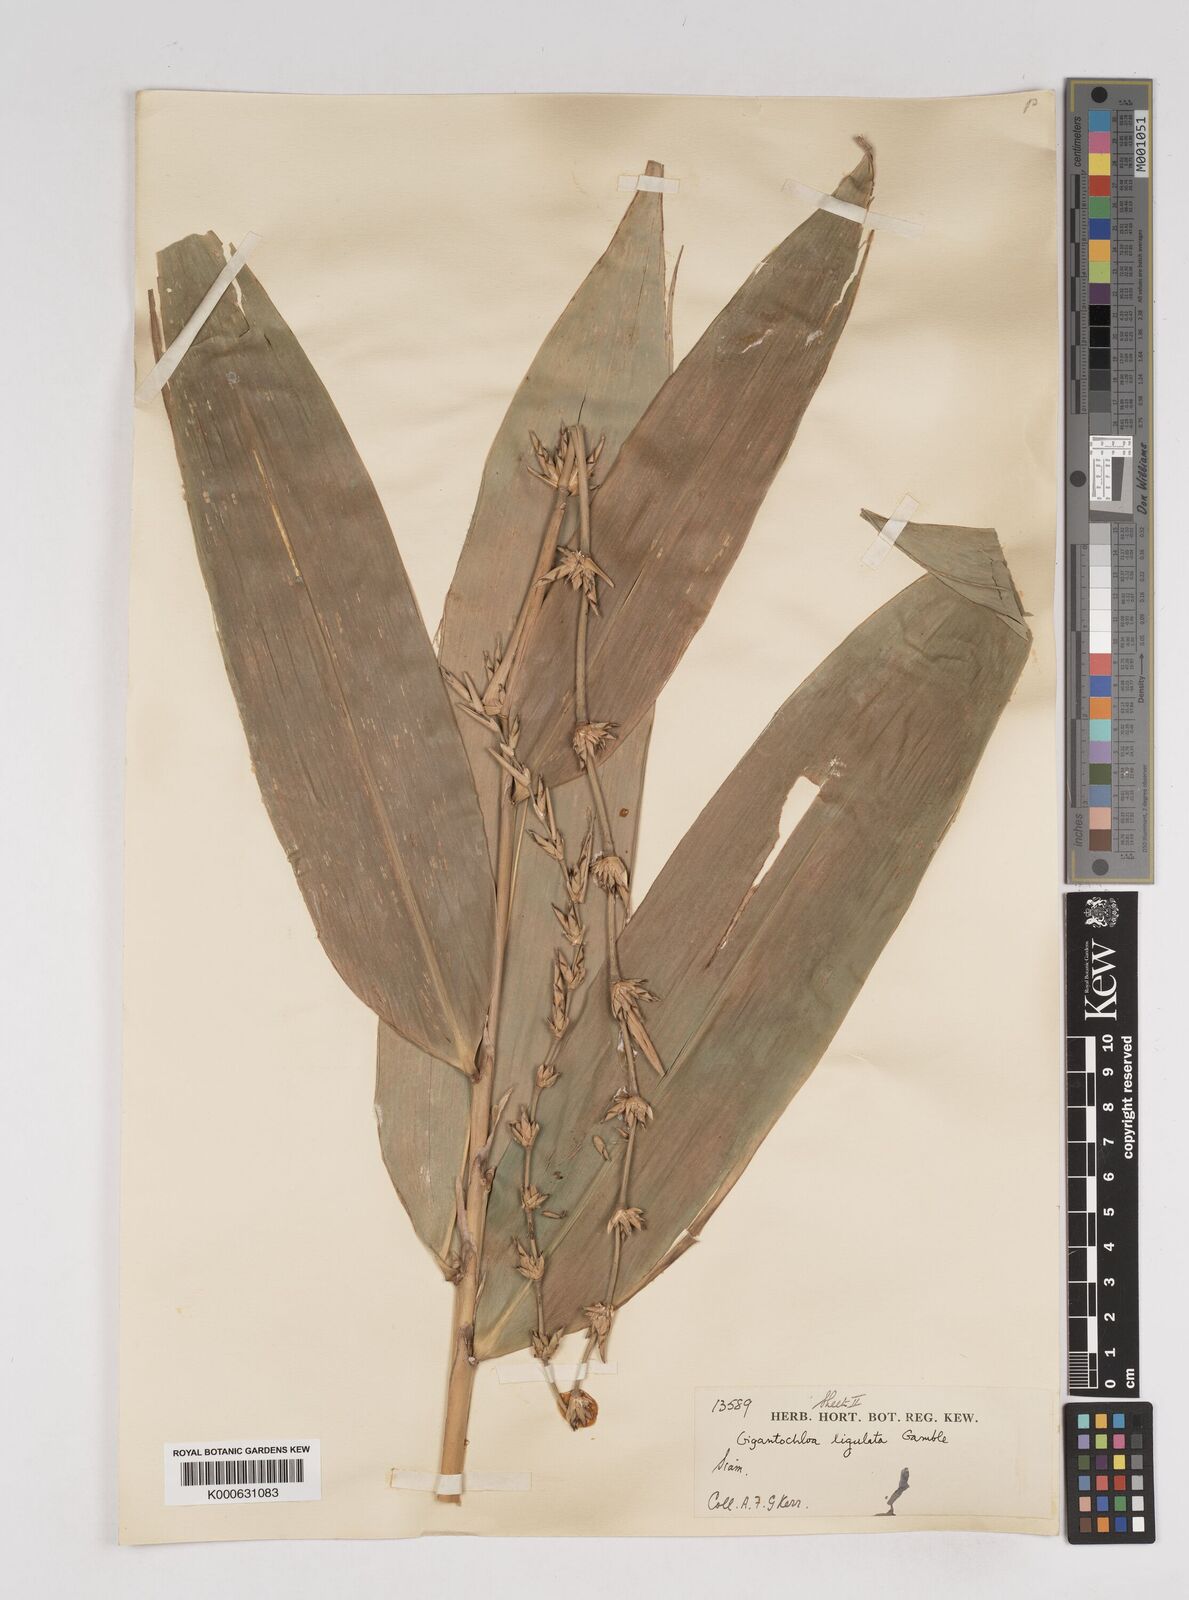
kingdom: Plantae
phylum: Tracheophyta
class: Liliopsida
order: Poales
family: Poaceae
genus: Gigantochloa
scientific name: Gigantochloa ligulata
